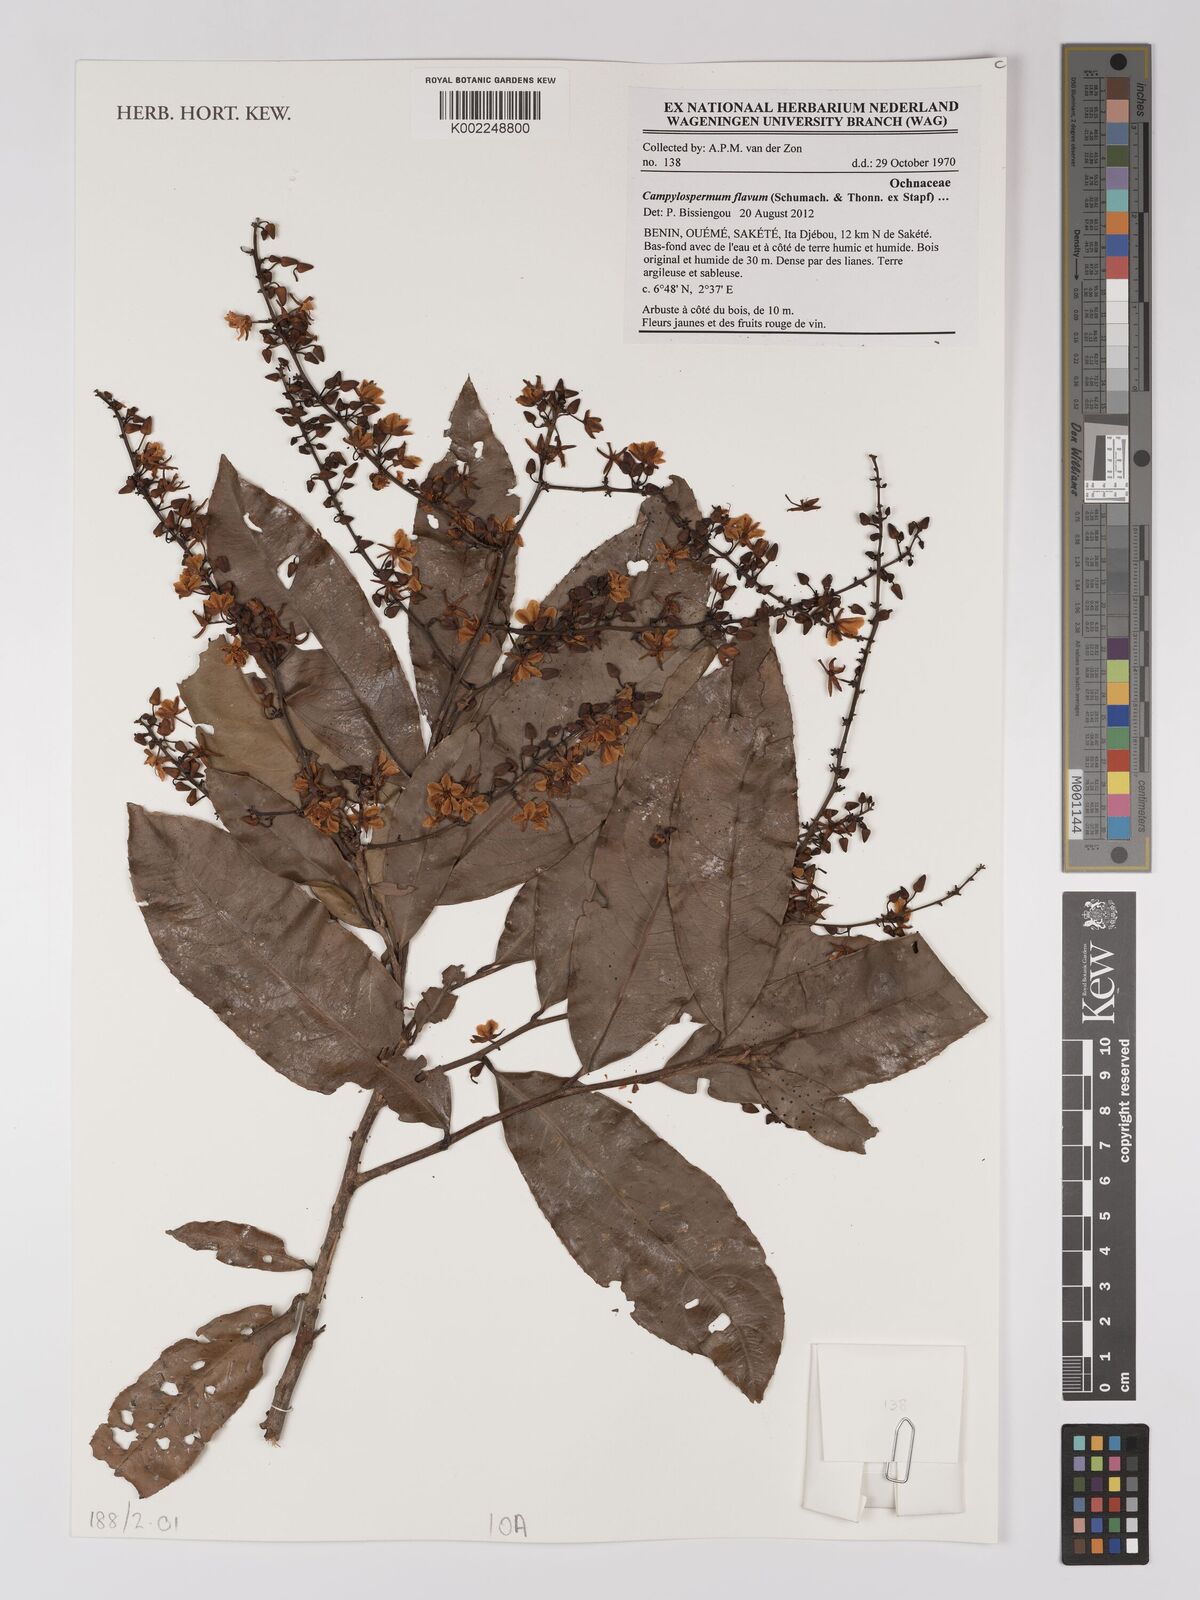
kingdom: Plantae
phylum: Tracheophyta
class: Magnoliopsida
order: Malpighiales
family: Ochnaceae
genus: Campylospermum
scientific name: Campylospermum flavum
